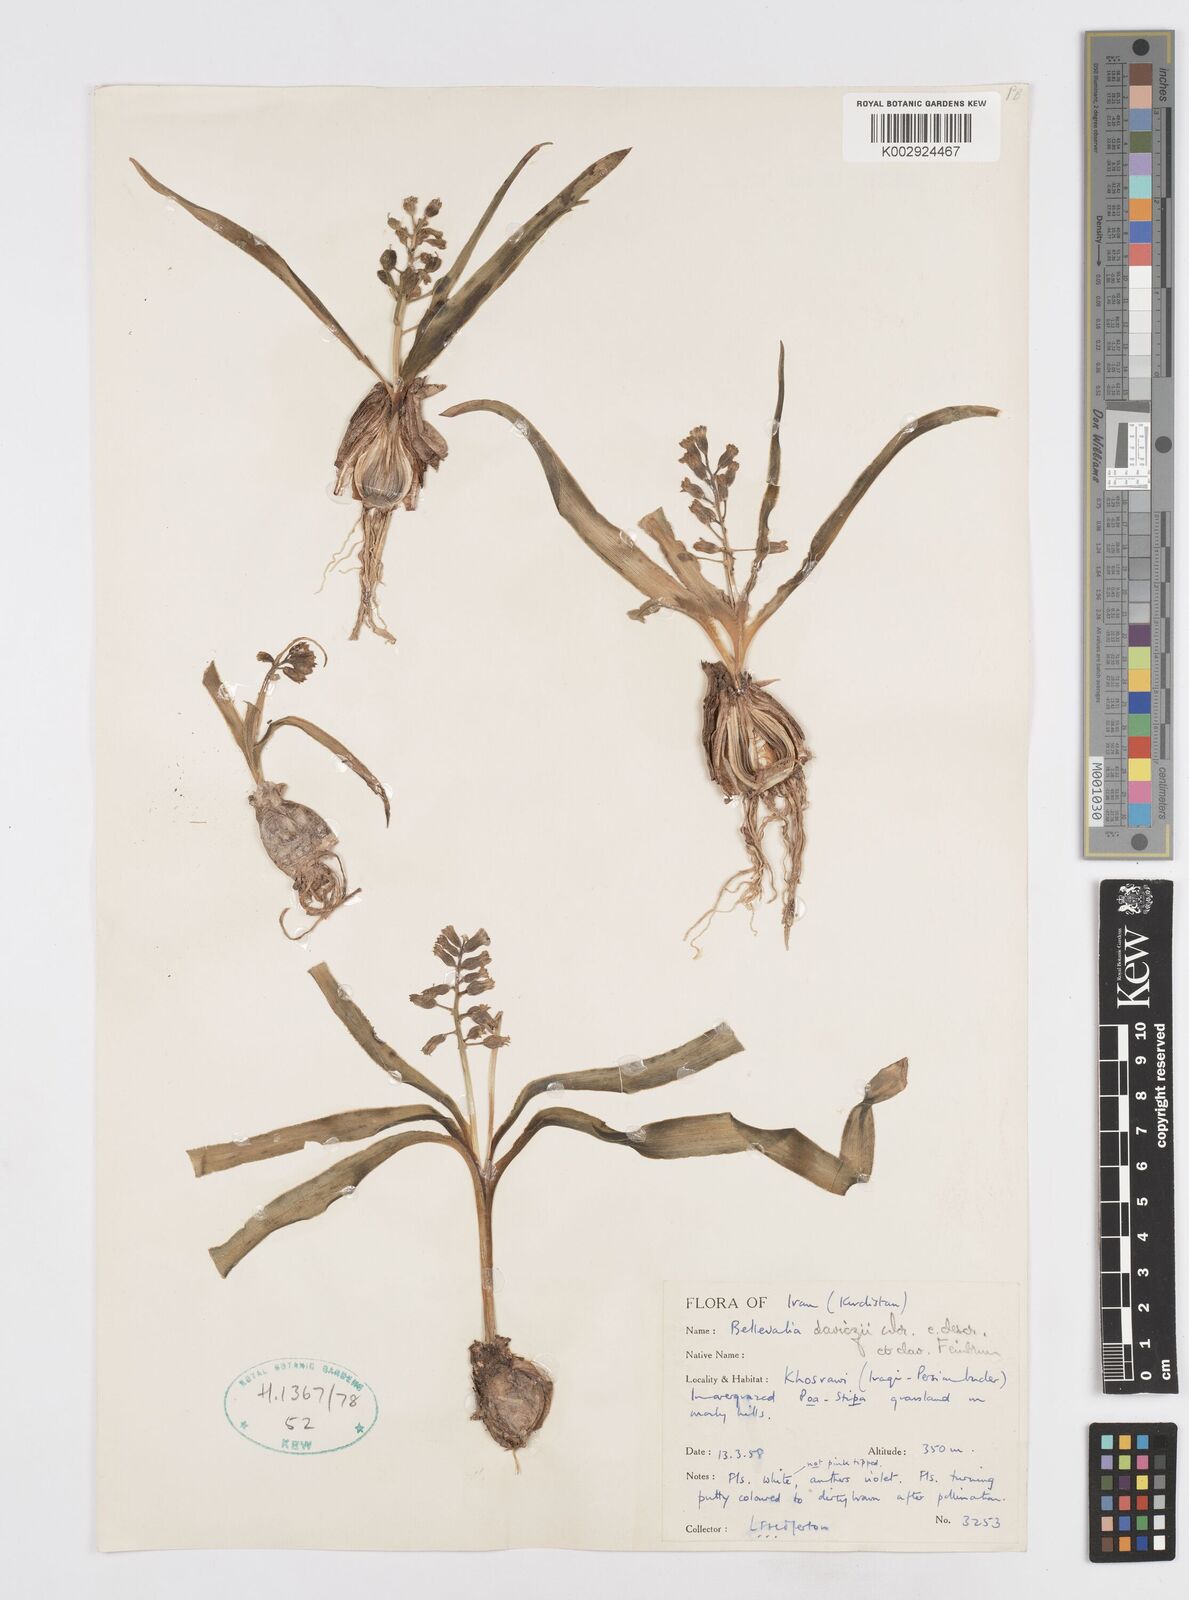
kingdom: Plantae
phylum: Tracheophyta
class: Liliopsida
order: Asparagales
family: Asparagaceae
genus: Bellevalia
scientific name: Bellevalia saviczii
